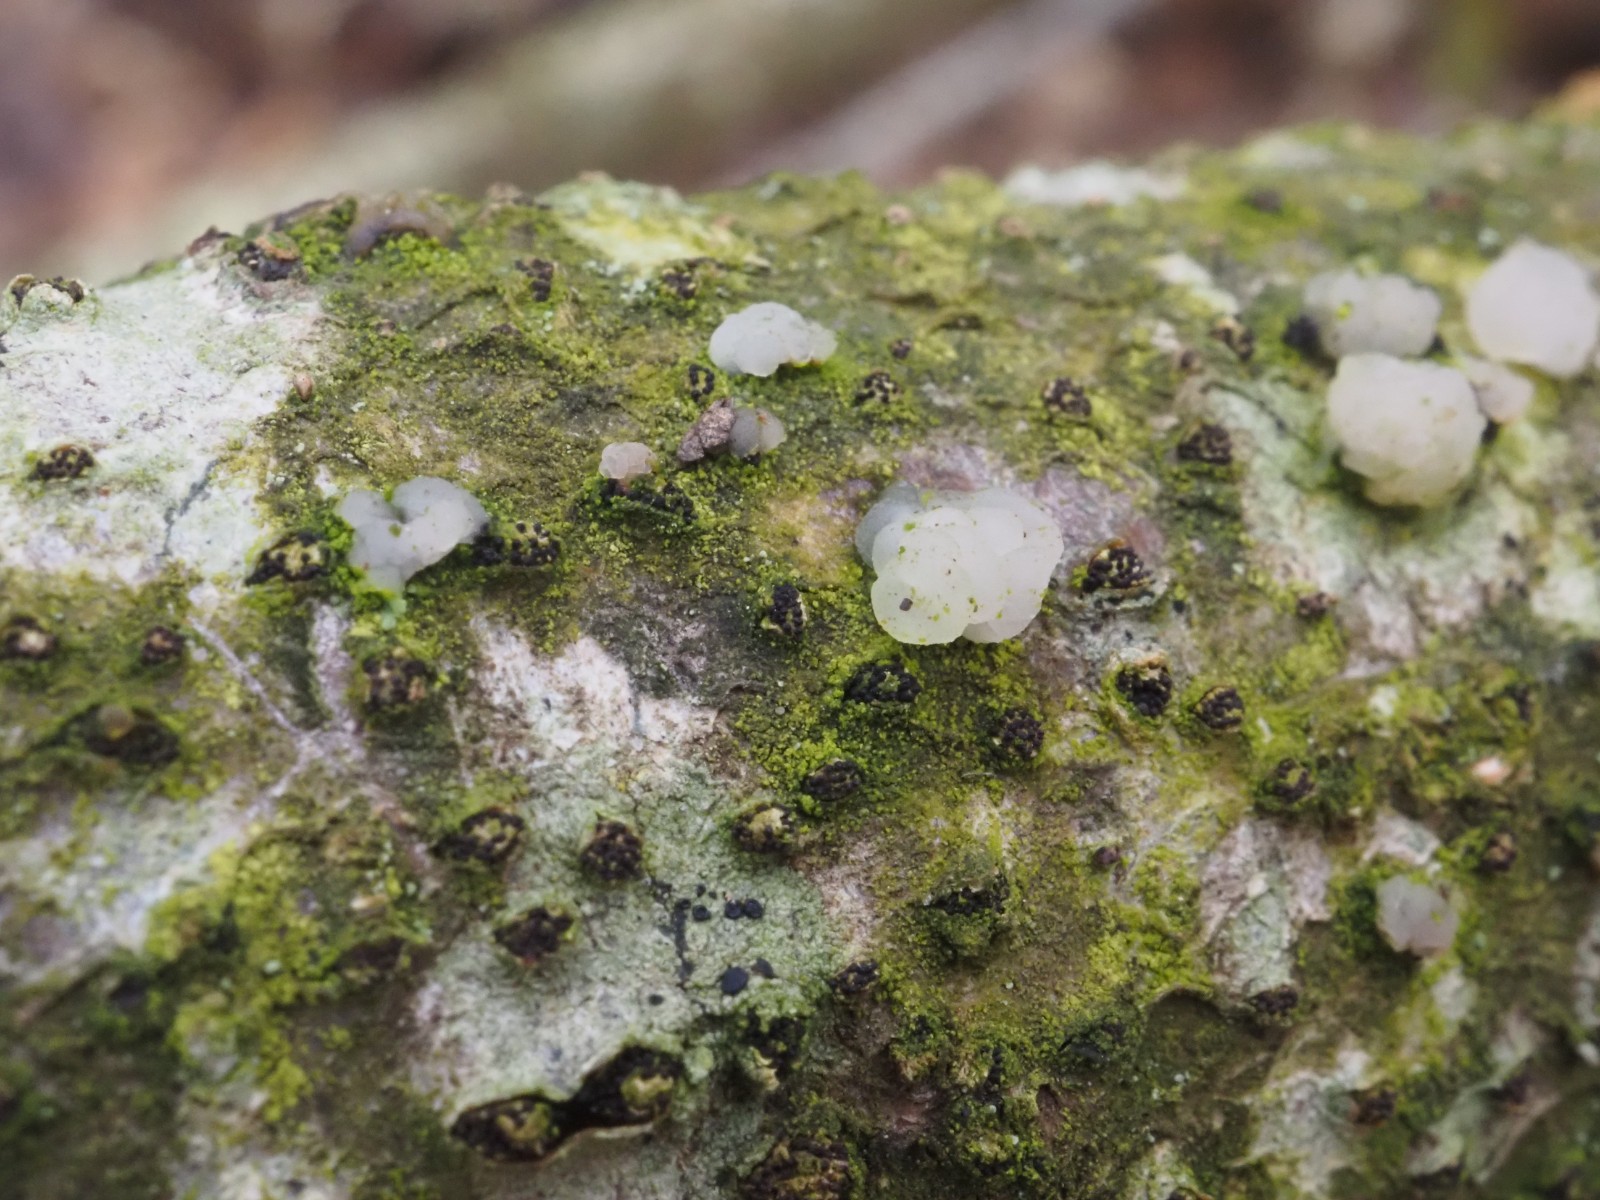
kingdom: Fungi
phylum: Basidiomycota
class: Tremellomycetes
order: Tremellales
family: Tremellaceae
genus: Tremella
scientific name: Tremella globispora
